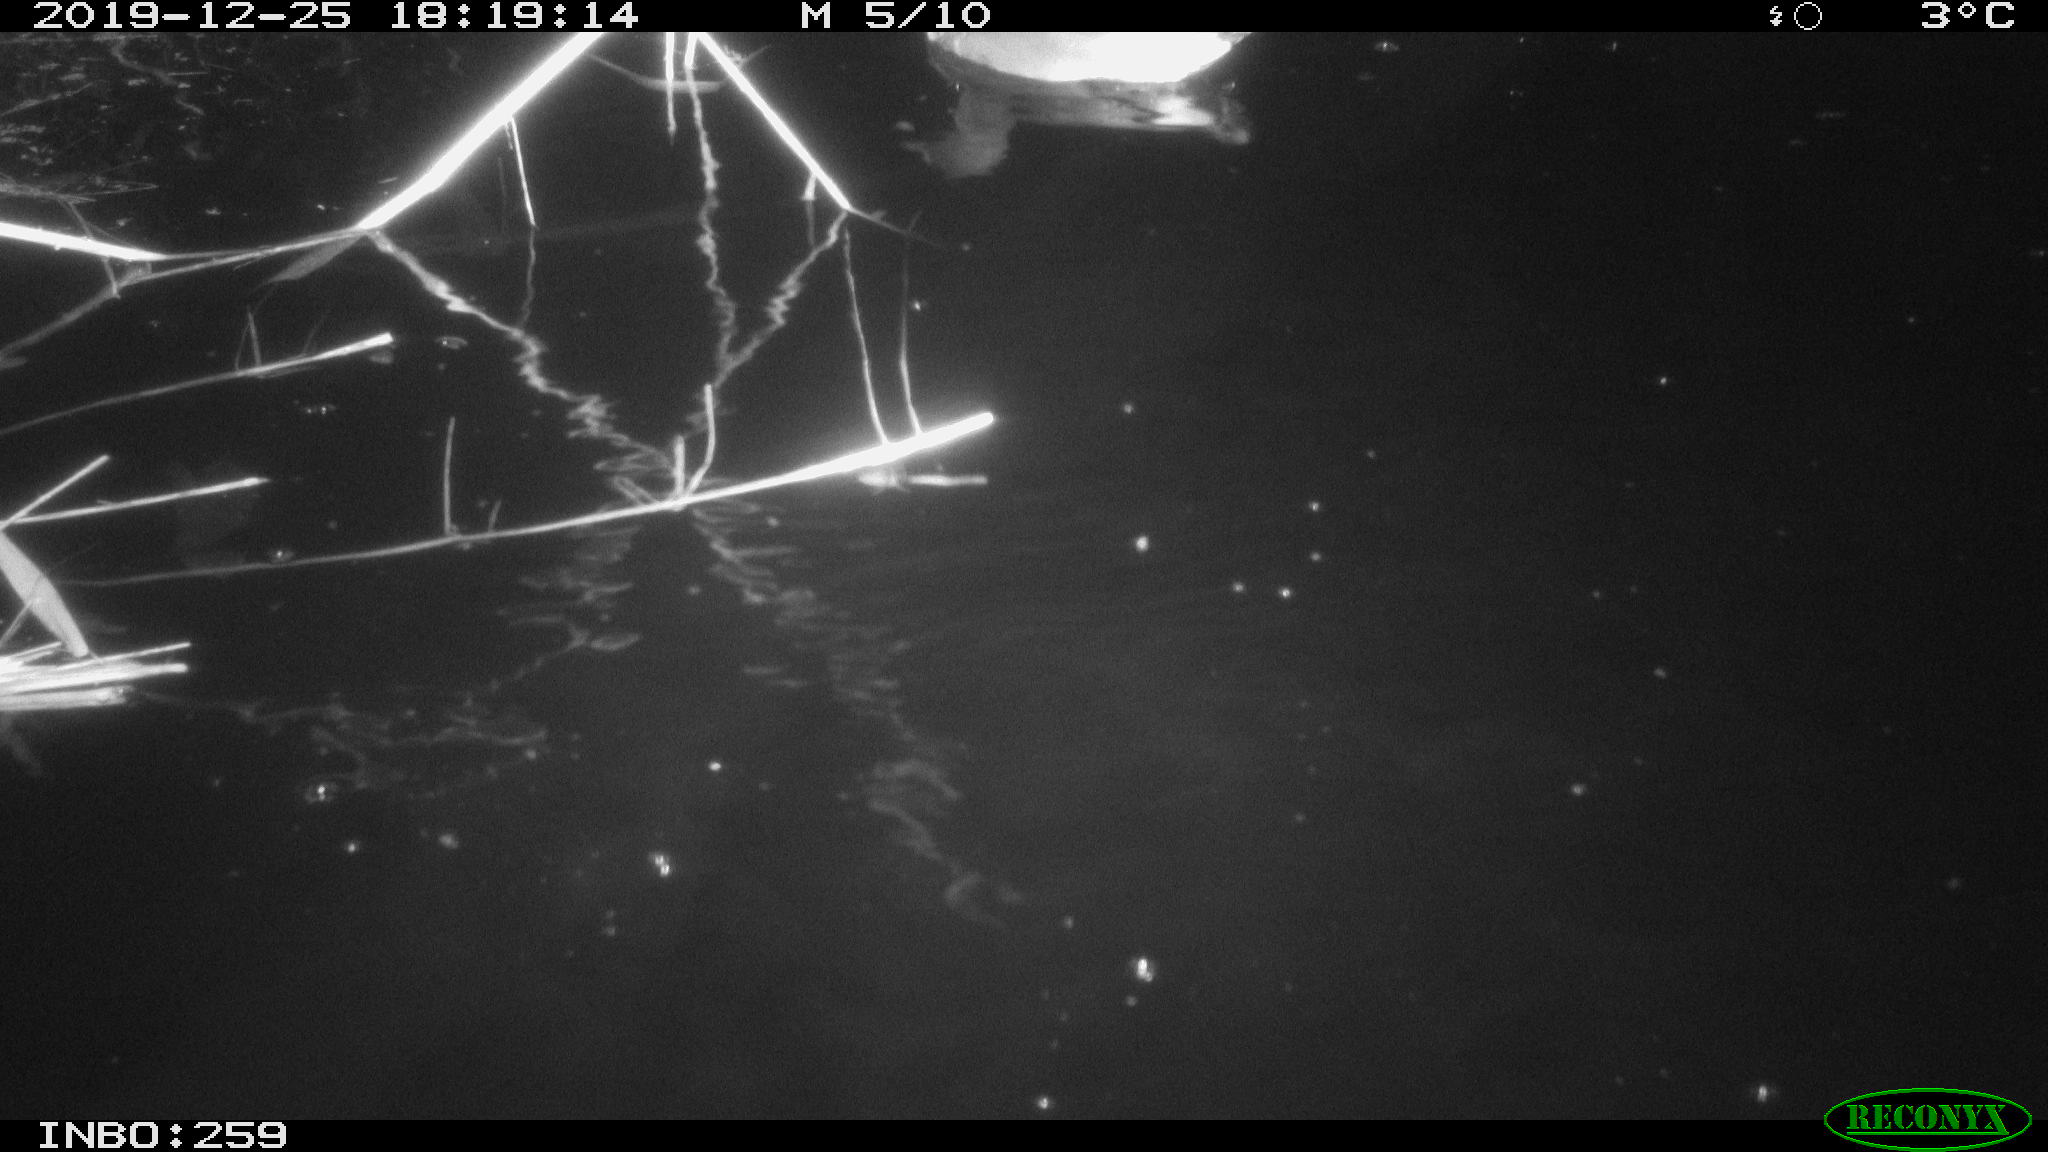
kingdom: Animalia
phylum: Chordata
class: Aves
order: Gruiformes
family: Rallidae
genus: Gallinula
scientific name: Gallinula chloropus
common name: Common moorhen
